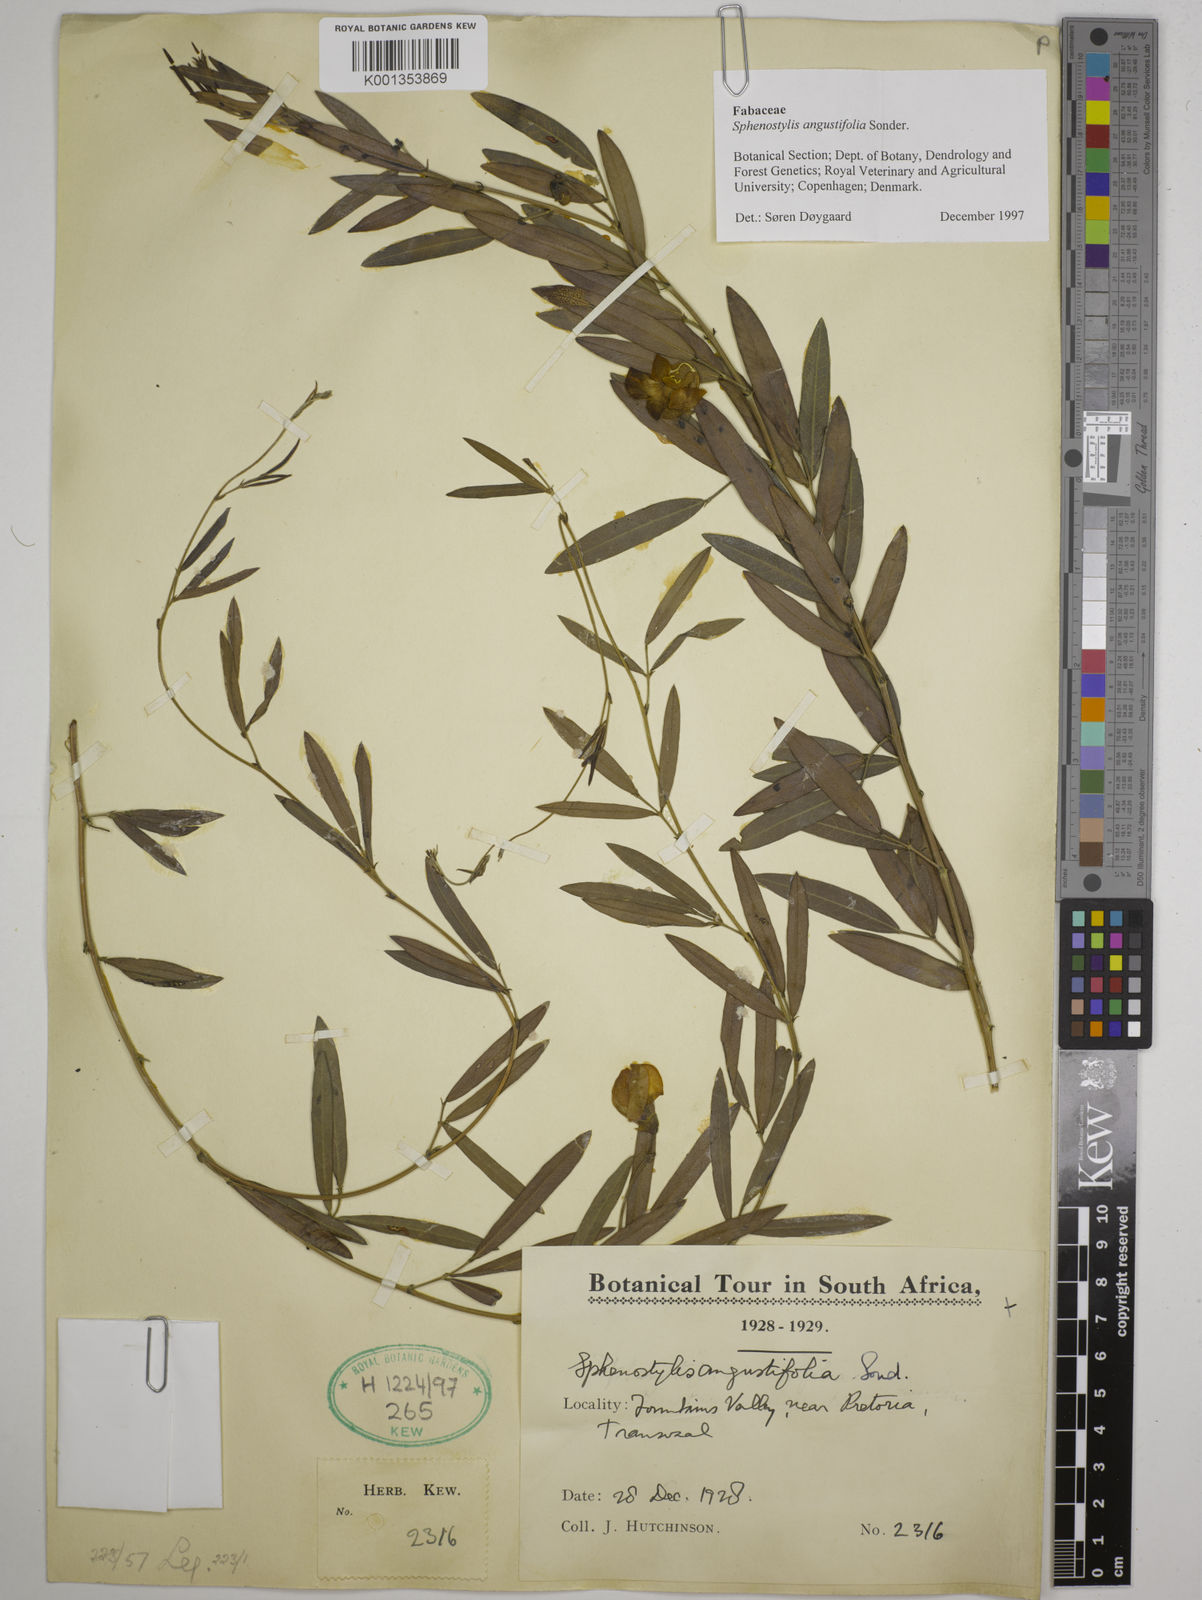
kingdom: Plantae
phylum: Tracheophyta
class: Magnoliopsida
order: Fabales
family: Fabaceae
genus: Sphenostylis
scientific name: Sphenostylis angustifolia
